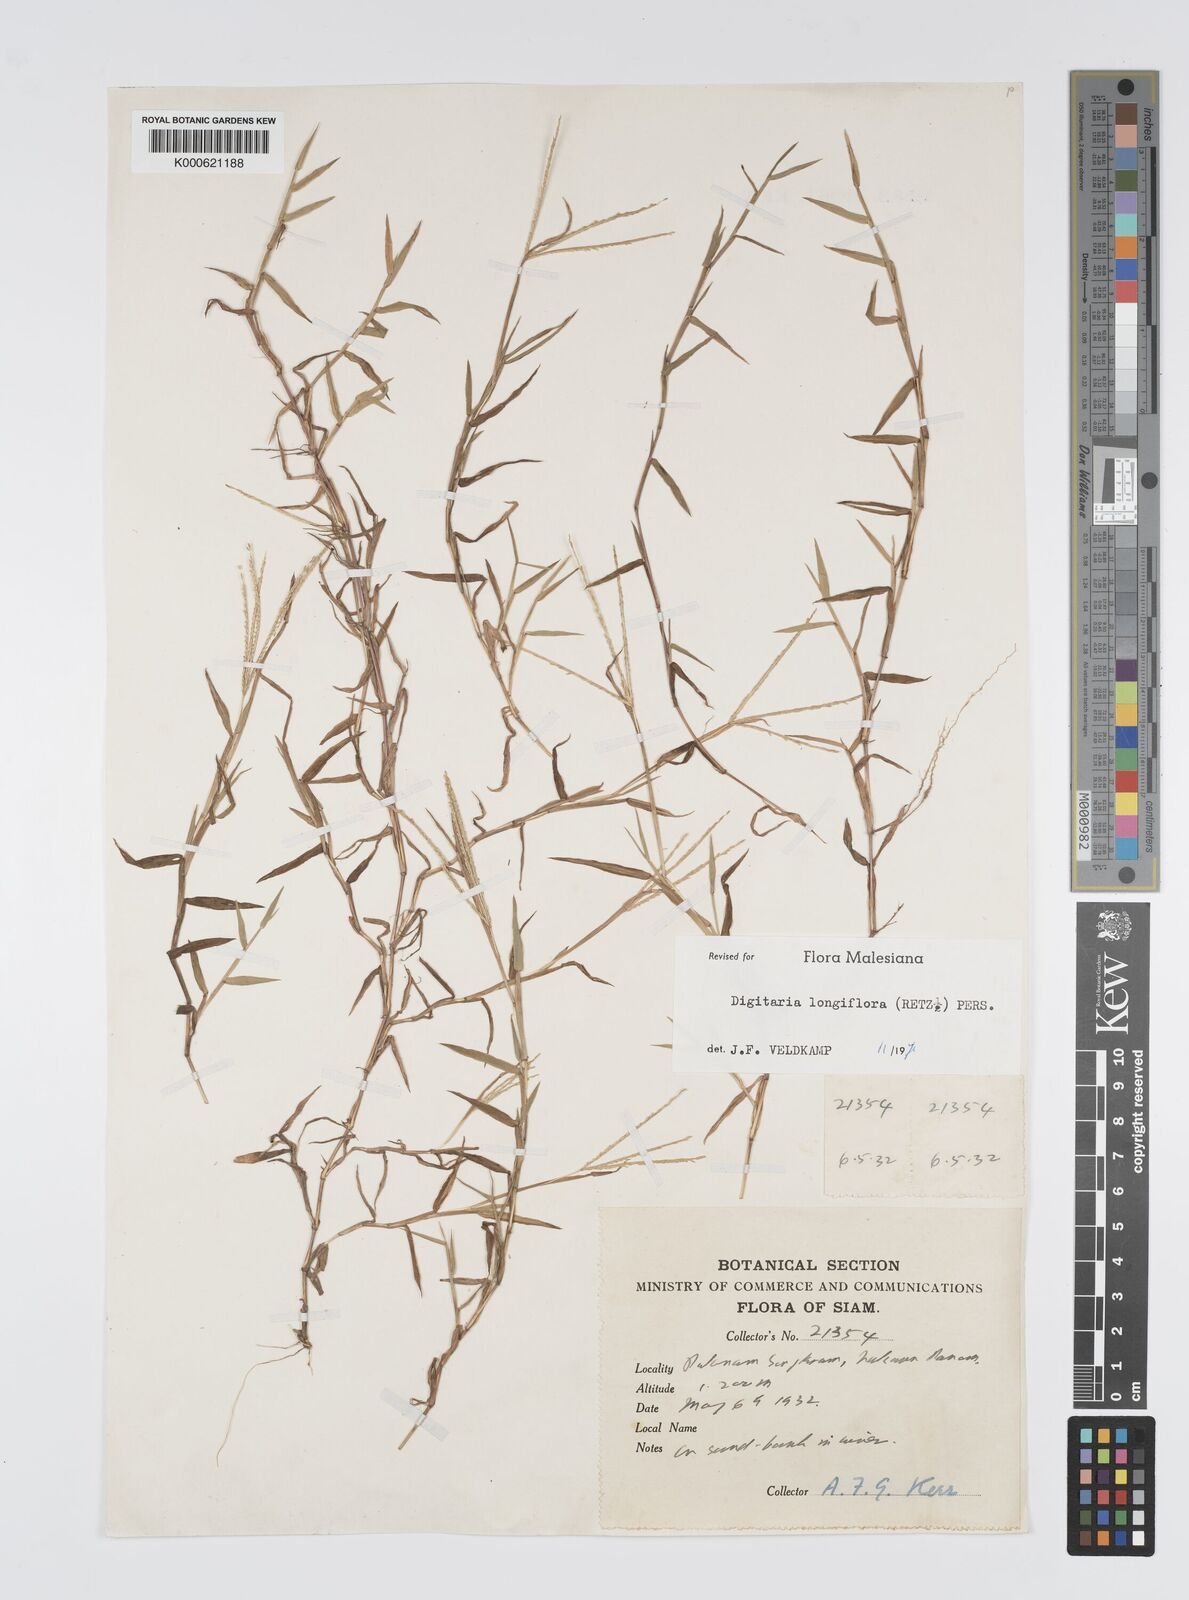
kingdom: Plantae
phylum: Tracheophyta
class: Liliopsida
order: Poales
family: Poaceae
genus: Digitaria
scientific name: Digitaria longiflora
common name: Wire crabgrass
